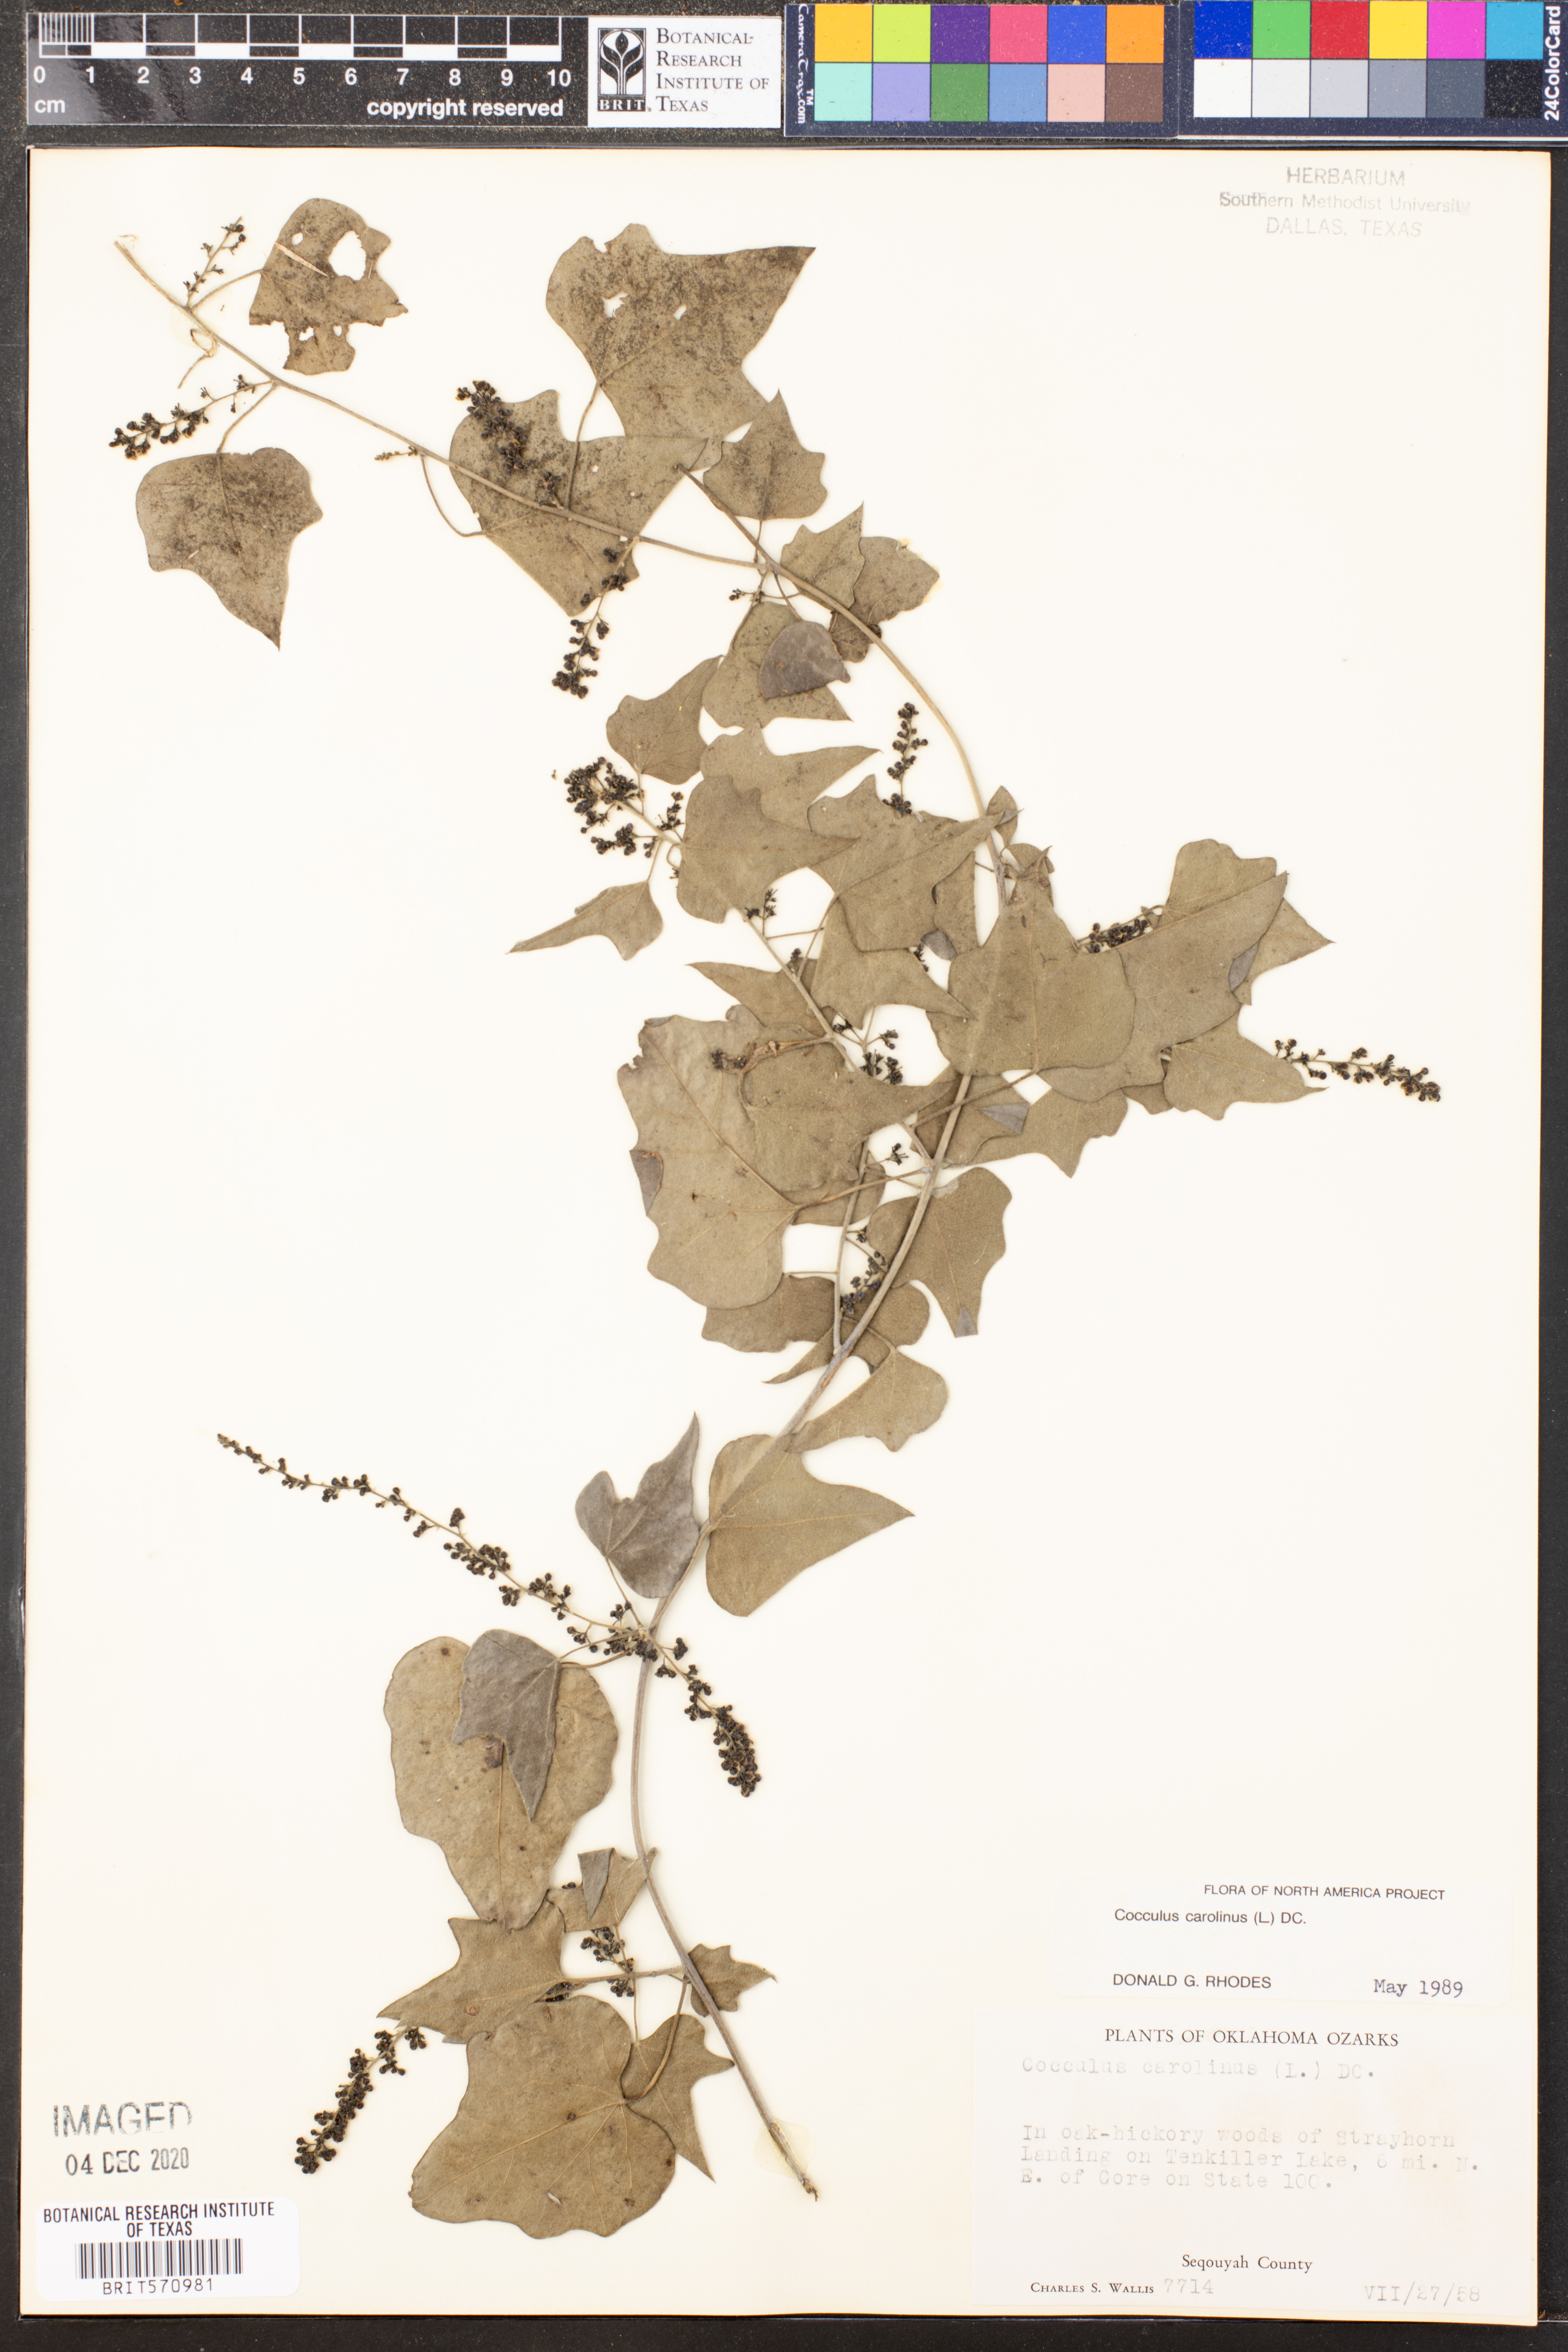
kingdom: Plantae
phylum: Tracheophyta
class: Magnoliopsida
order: Ranunculales
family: Menispermaceae
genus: Cocculus
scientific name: Cocculus carolinus
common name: Carolina moonseed
